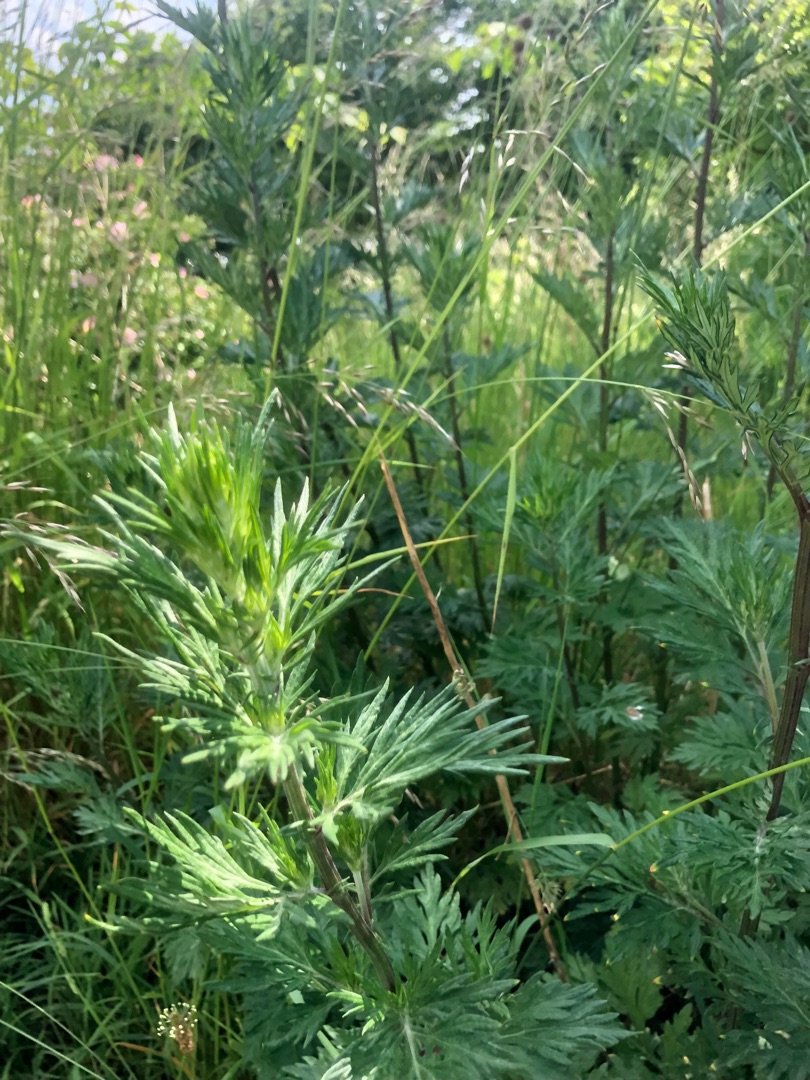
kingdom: Plantae
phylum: Tracheophyta
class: Magnoliopsida
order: Asterales
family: Asteraceae
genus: Artemisia
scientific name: Artemisia vulgaris
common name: Grå-bynke
